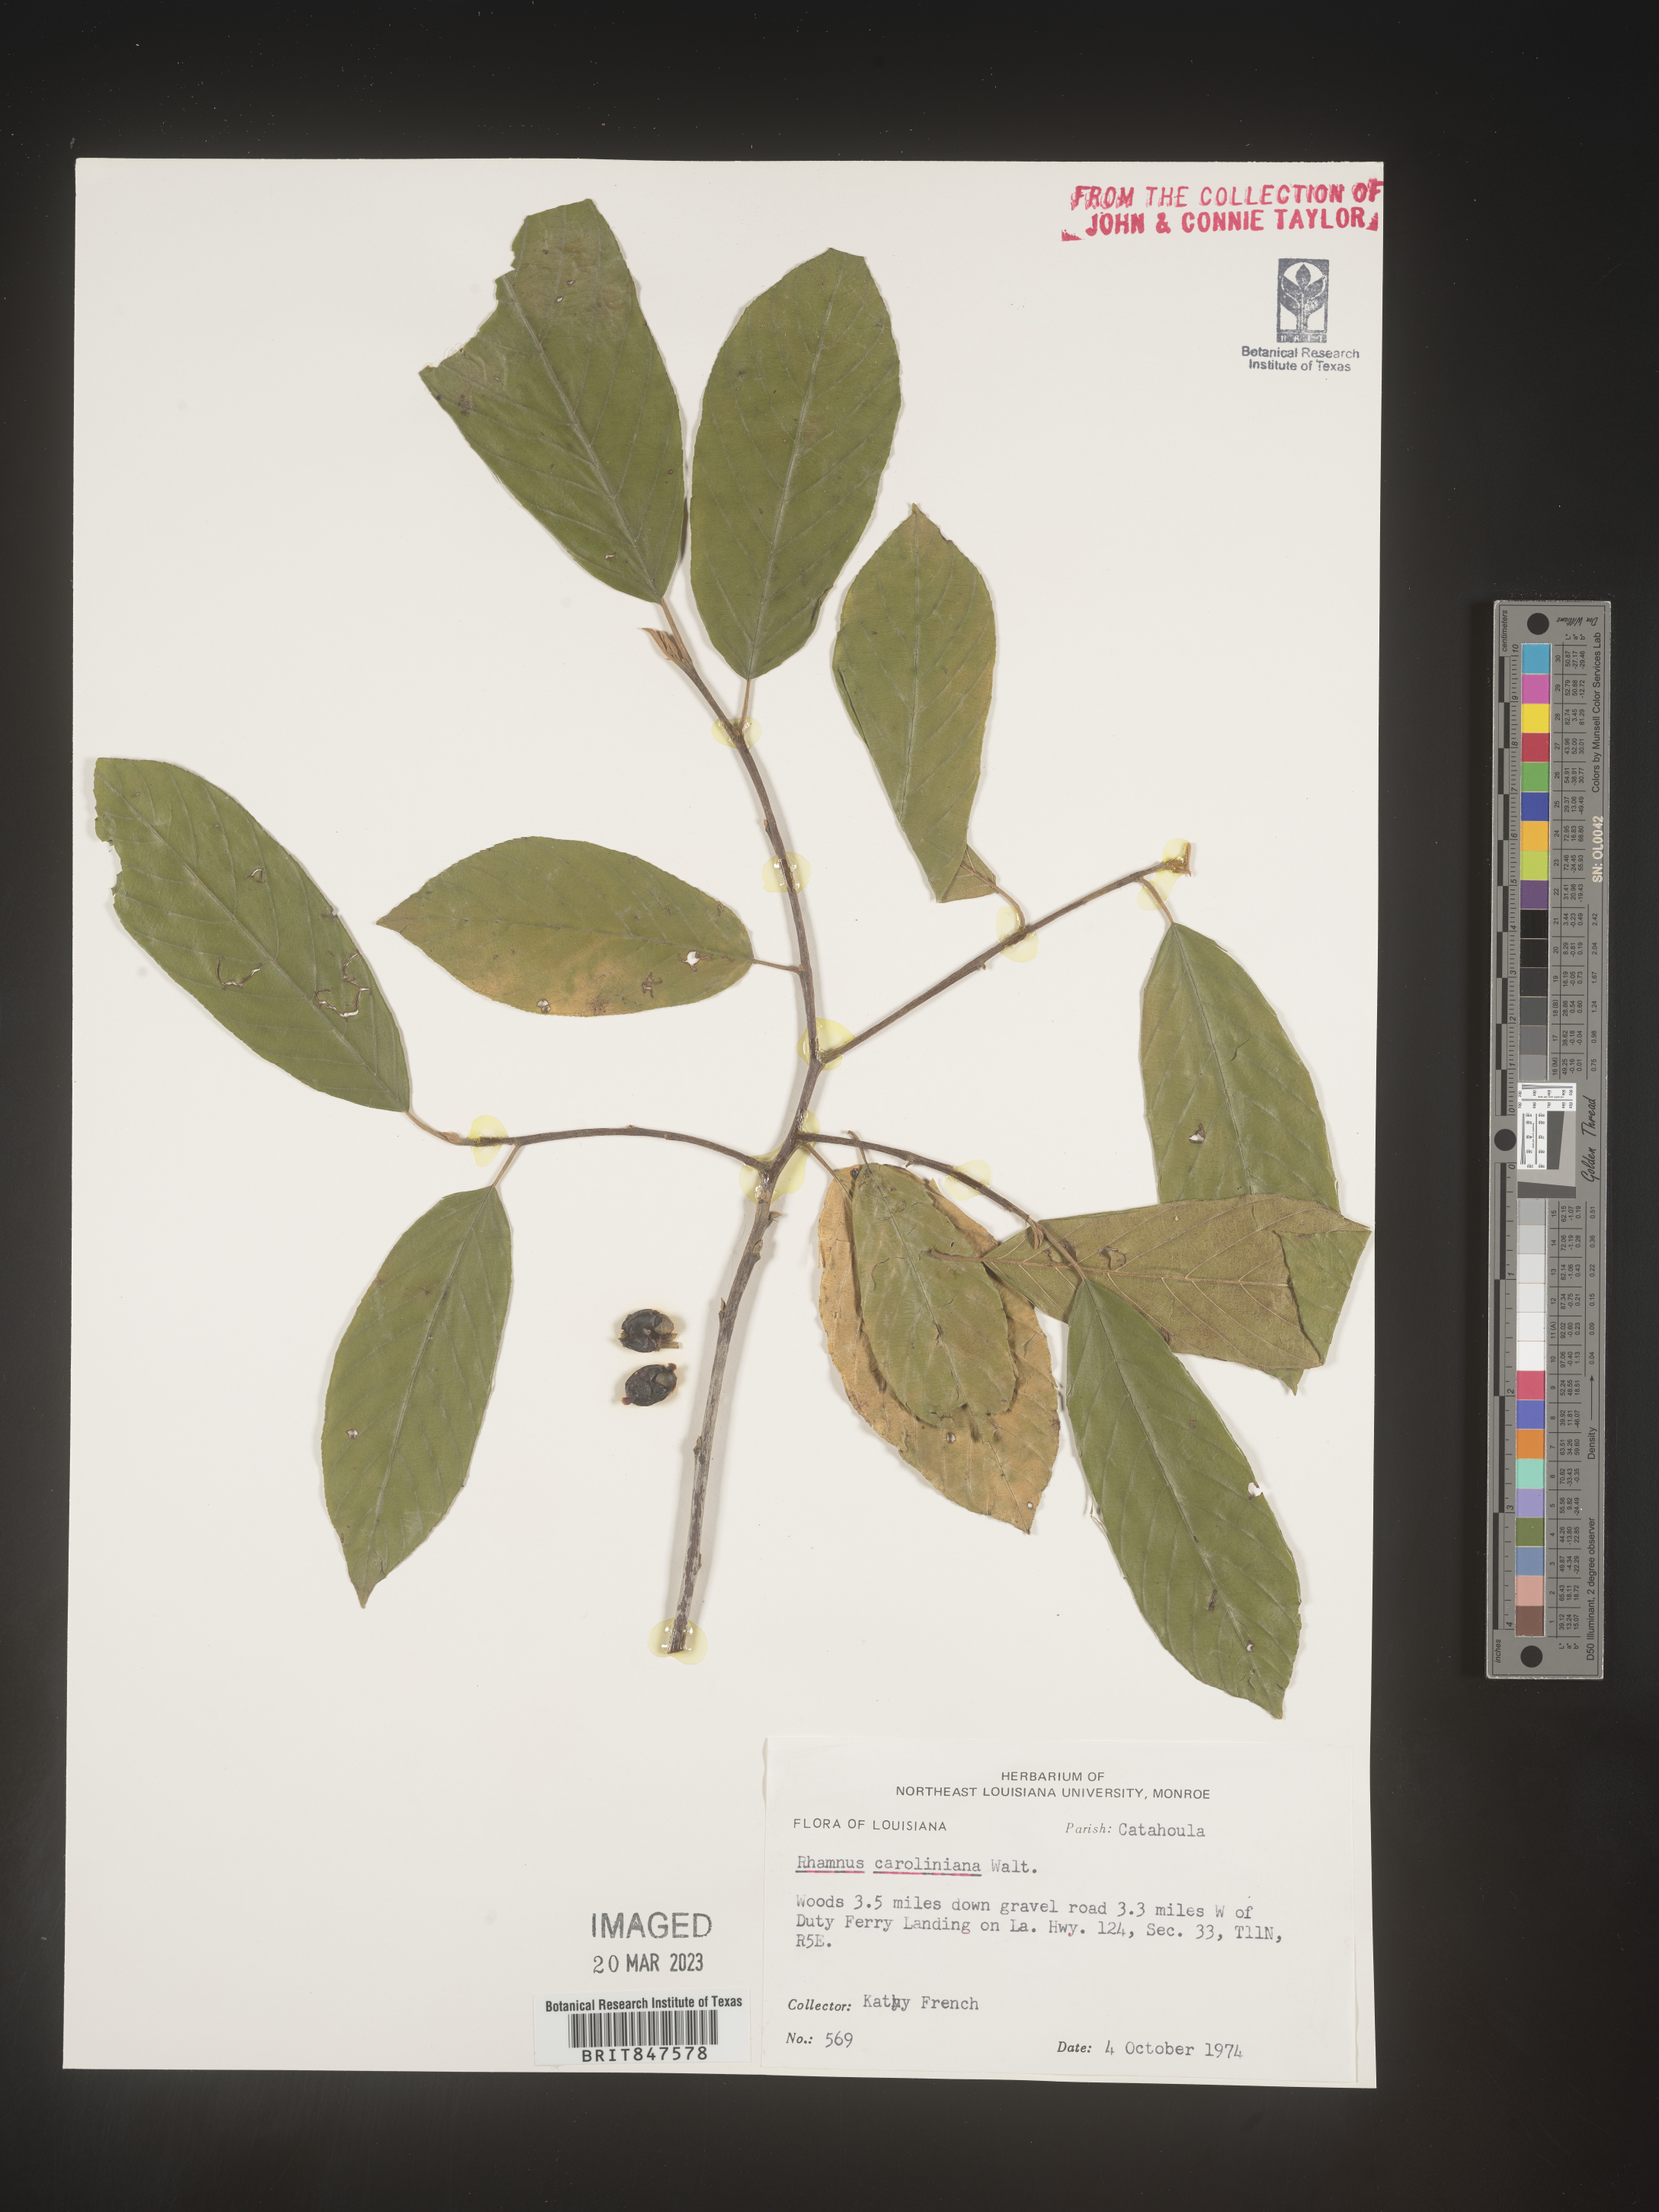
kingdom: Plantae
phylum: Tracheophyta
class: Magnoliopsida
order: Rosales
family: Rhamnaceae
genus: Frangula
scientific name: Frangula caroliniana
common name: Carolina buckthorn
